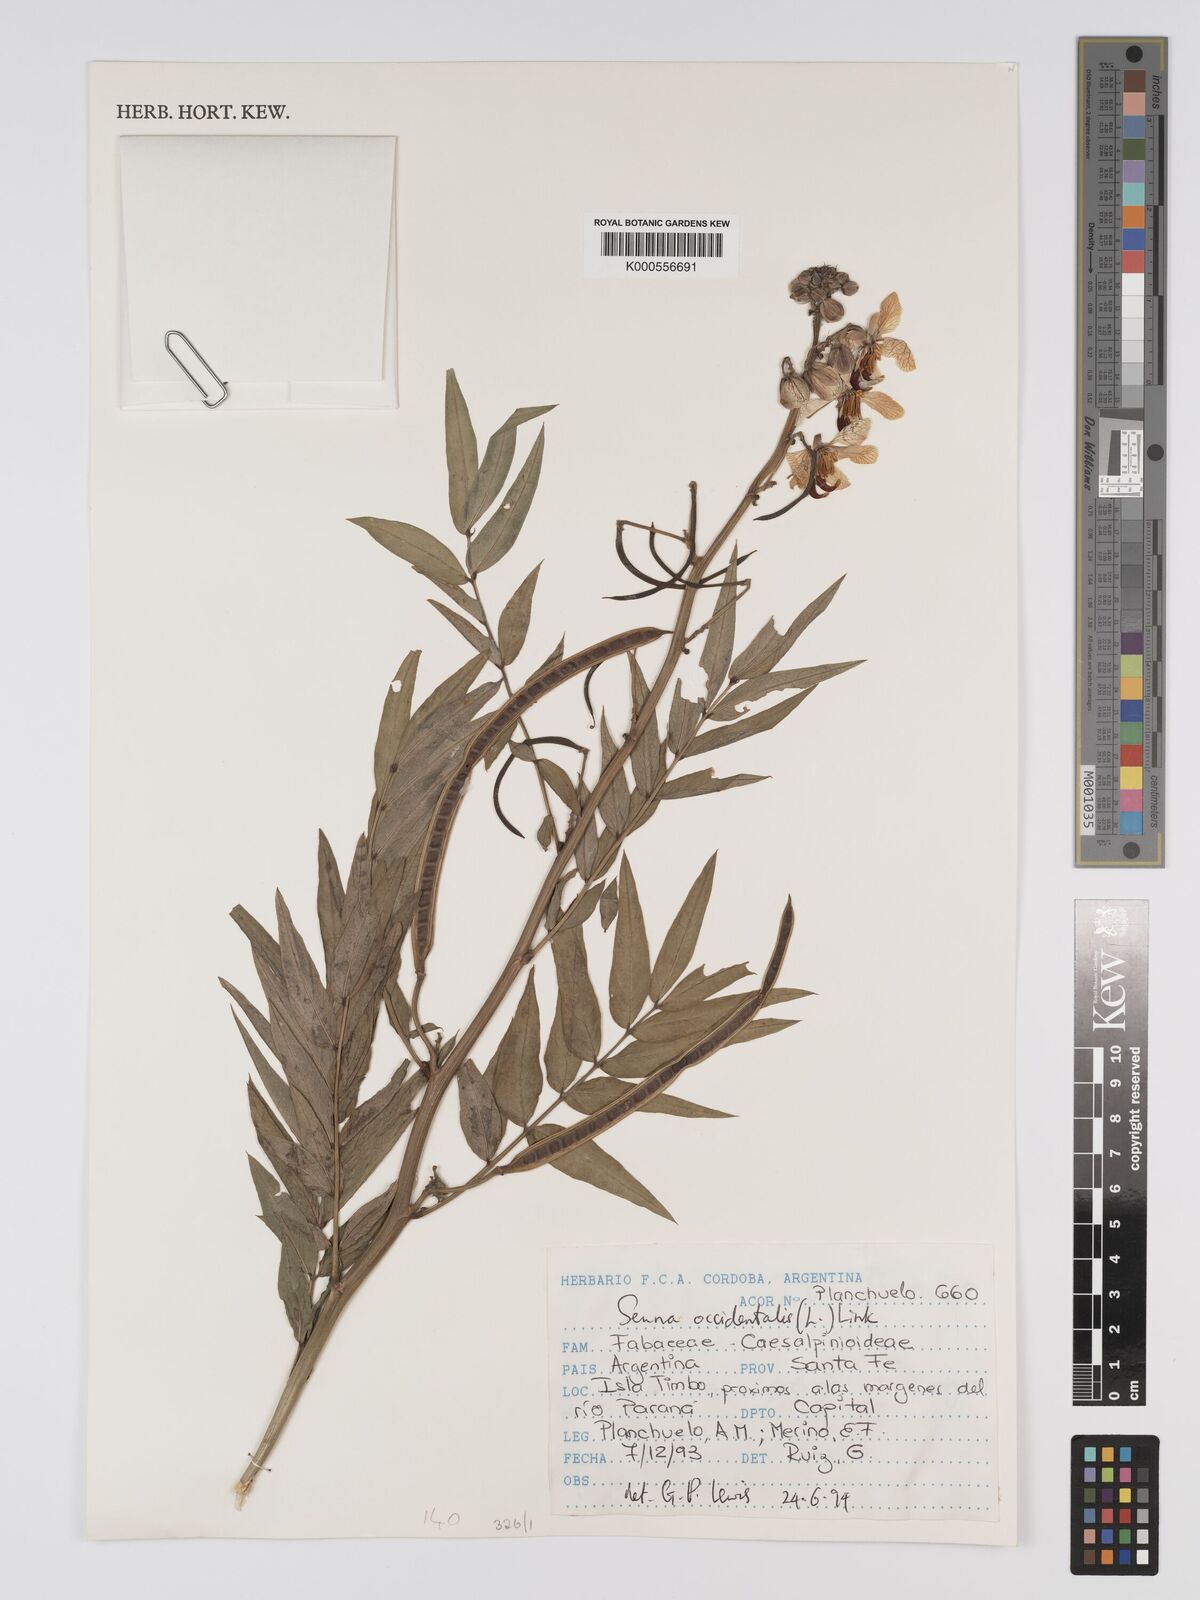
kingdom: Plantae
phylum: Tracheophyta
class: Magnoliopsida
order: Fabales
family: Fabaceae
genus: Senna
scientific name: Senna occidentalis
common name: Septicweed
